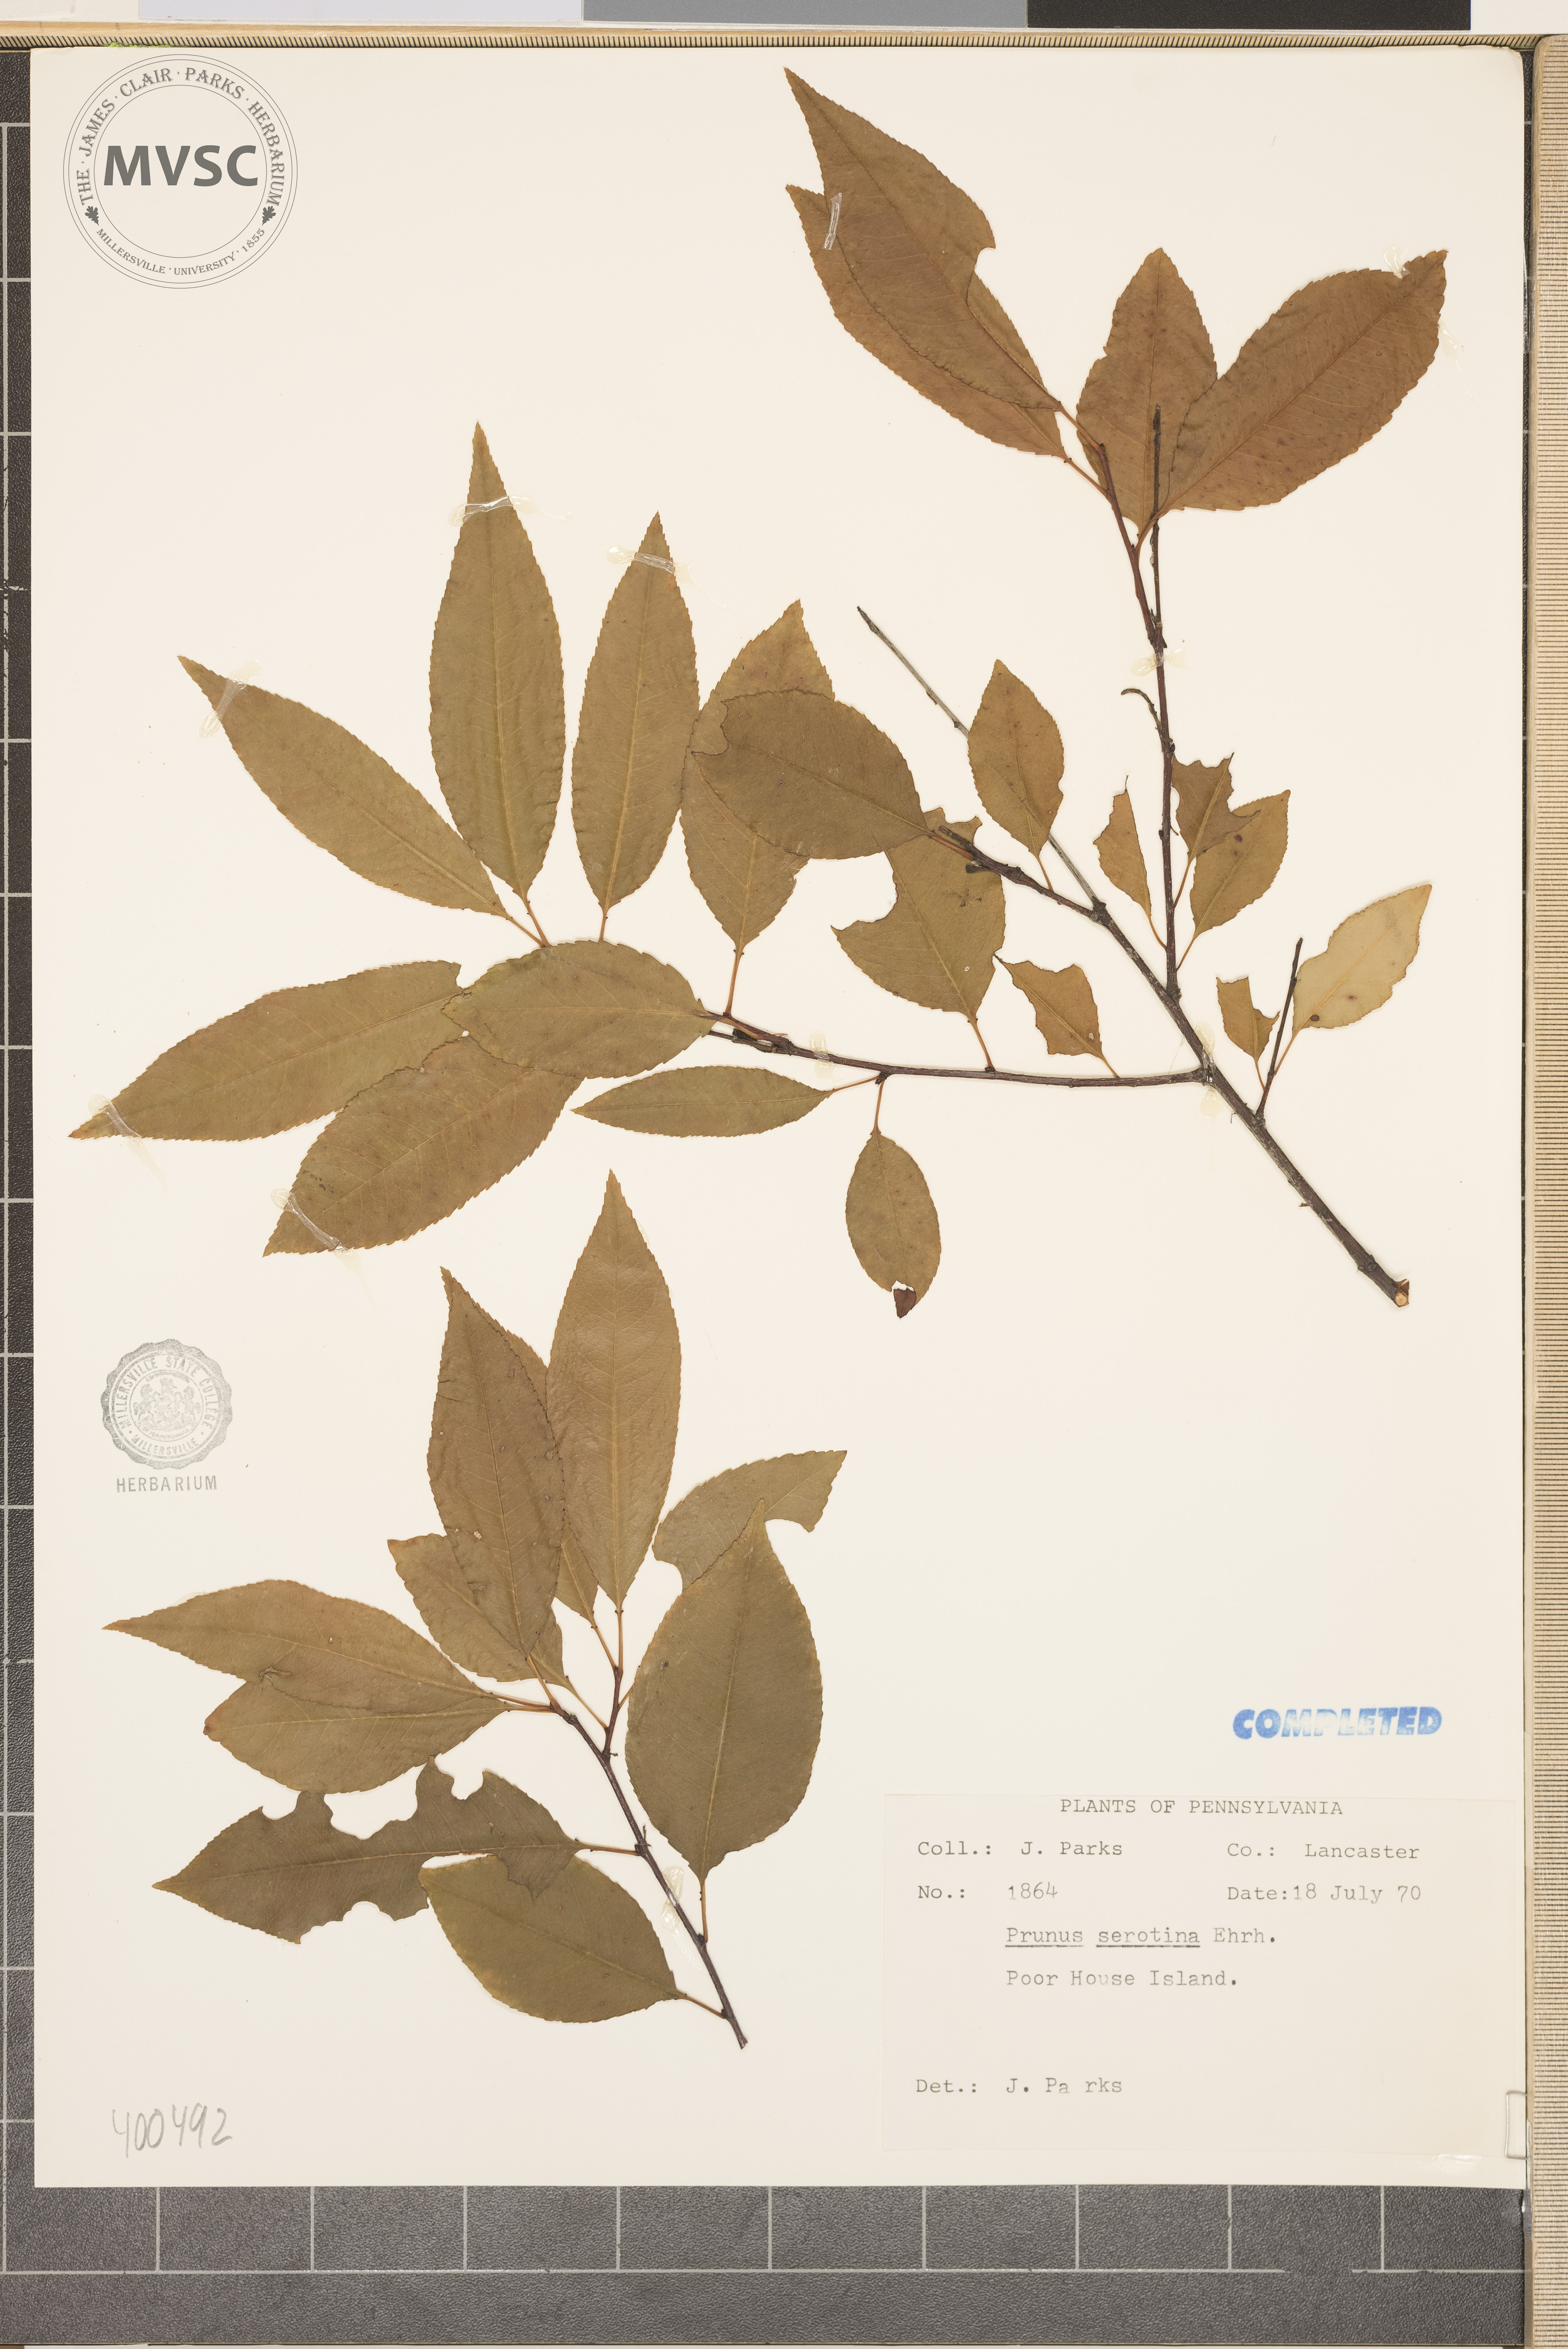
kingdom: Plantae
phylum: Tracheophyta
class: Magnoliopsida
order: Rosales
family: Rosaceae
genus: Prunus
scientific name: Prunus serotina
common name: wild black cherry
